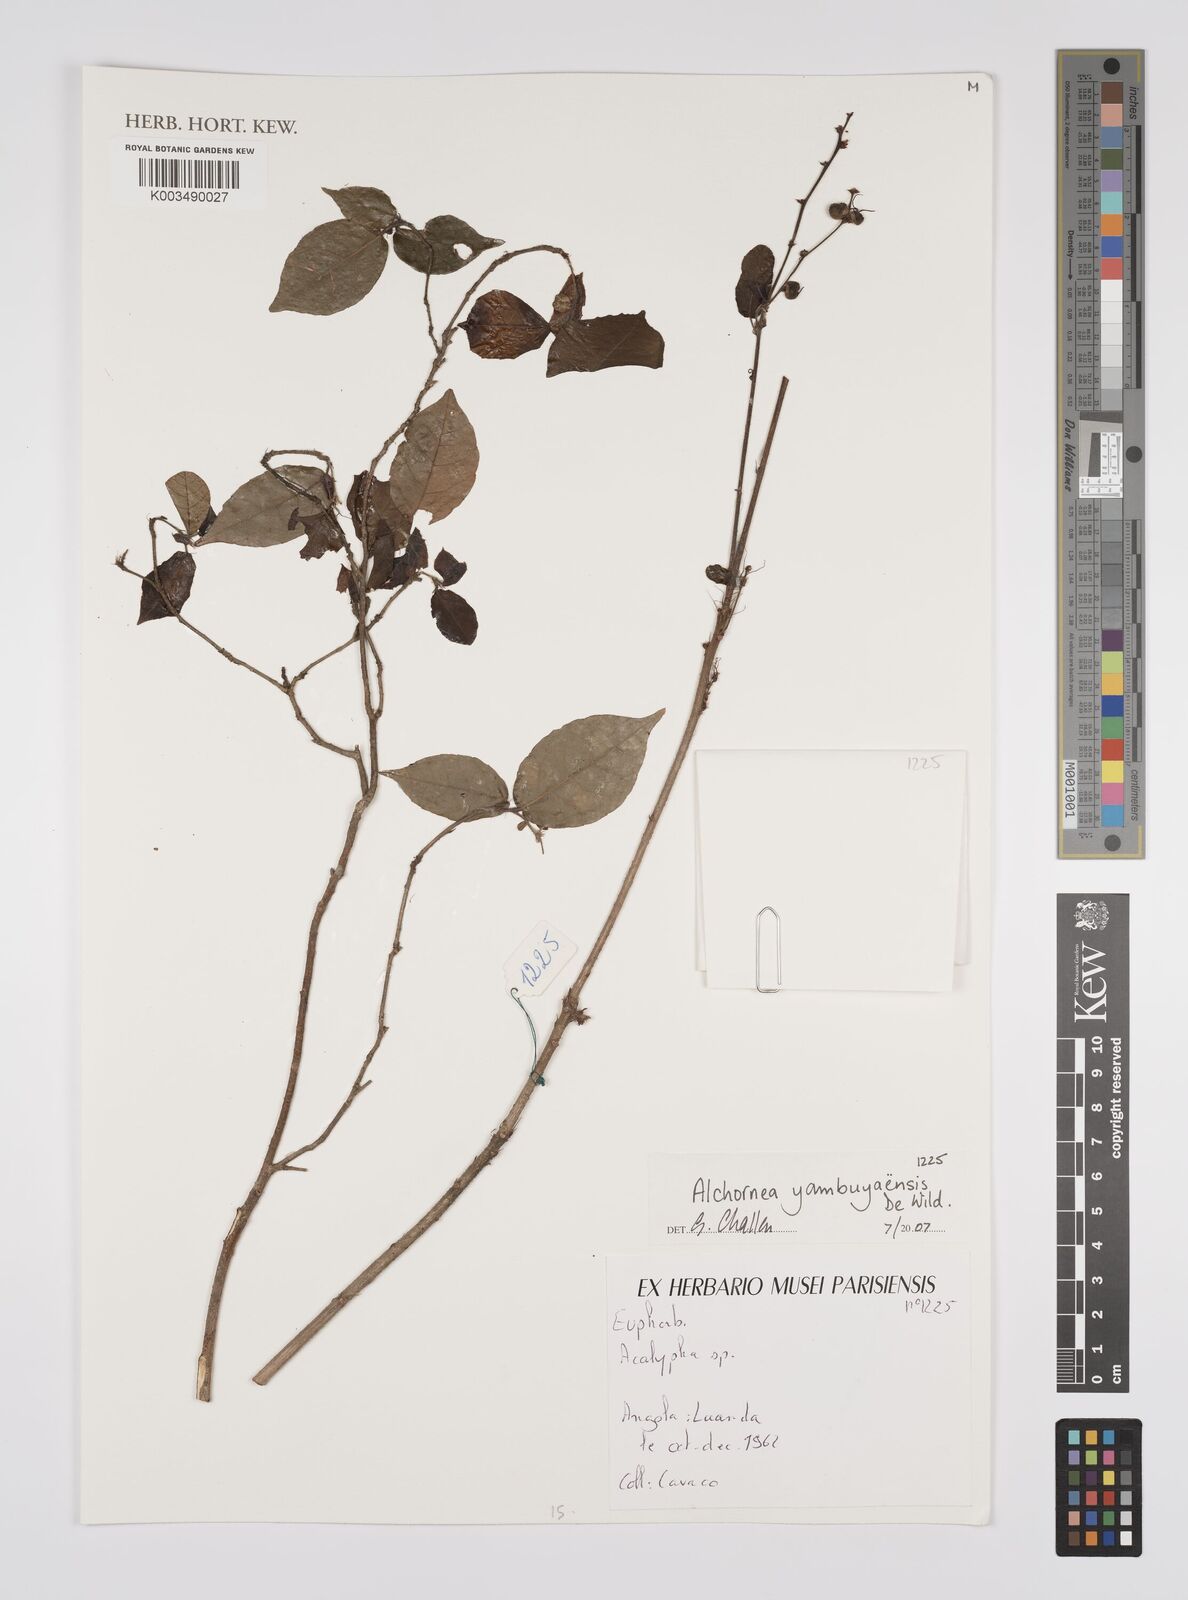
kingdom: Plantae
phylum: Tracheophyta
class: Magnoliopsida
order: Malpighiales
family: Euphorbiaceae
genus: Alchornea
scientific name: Alchornea yambuyaensis
